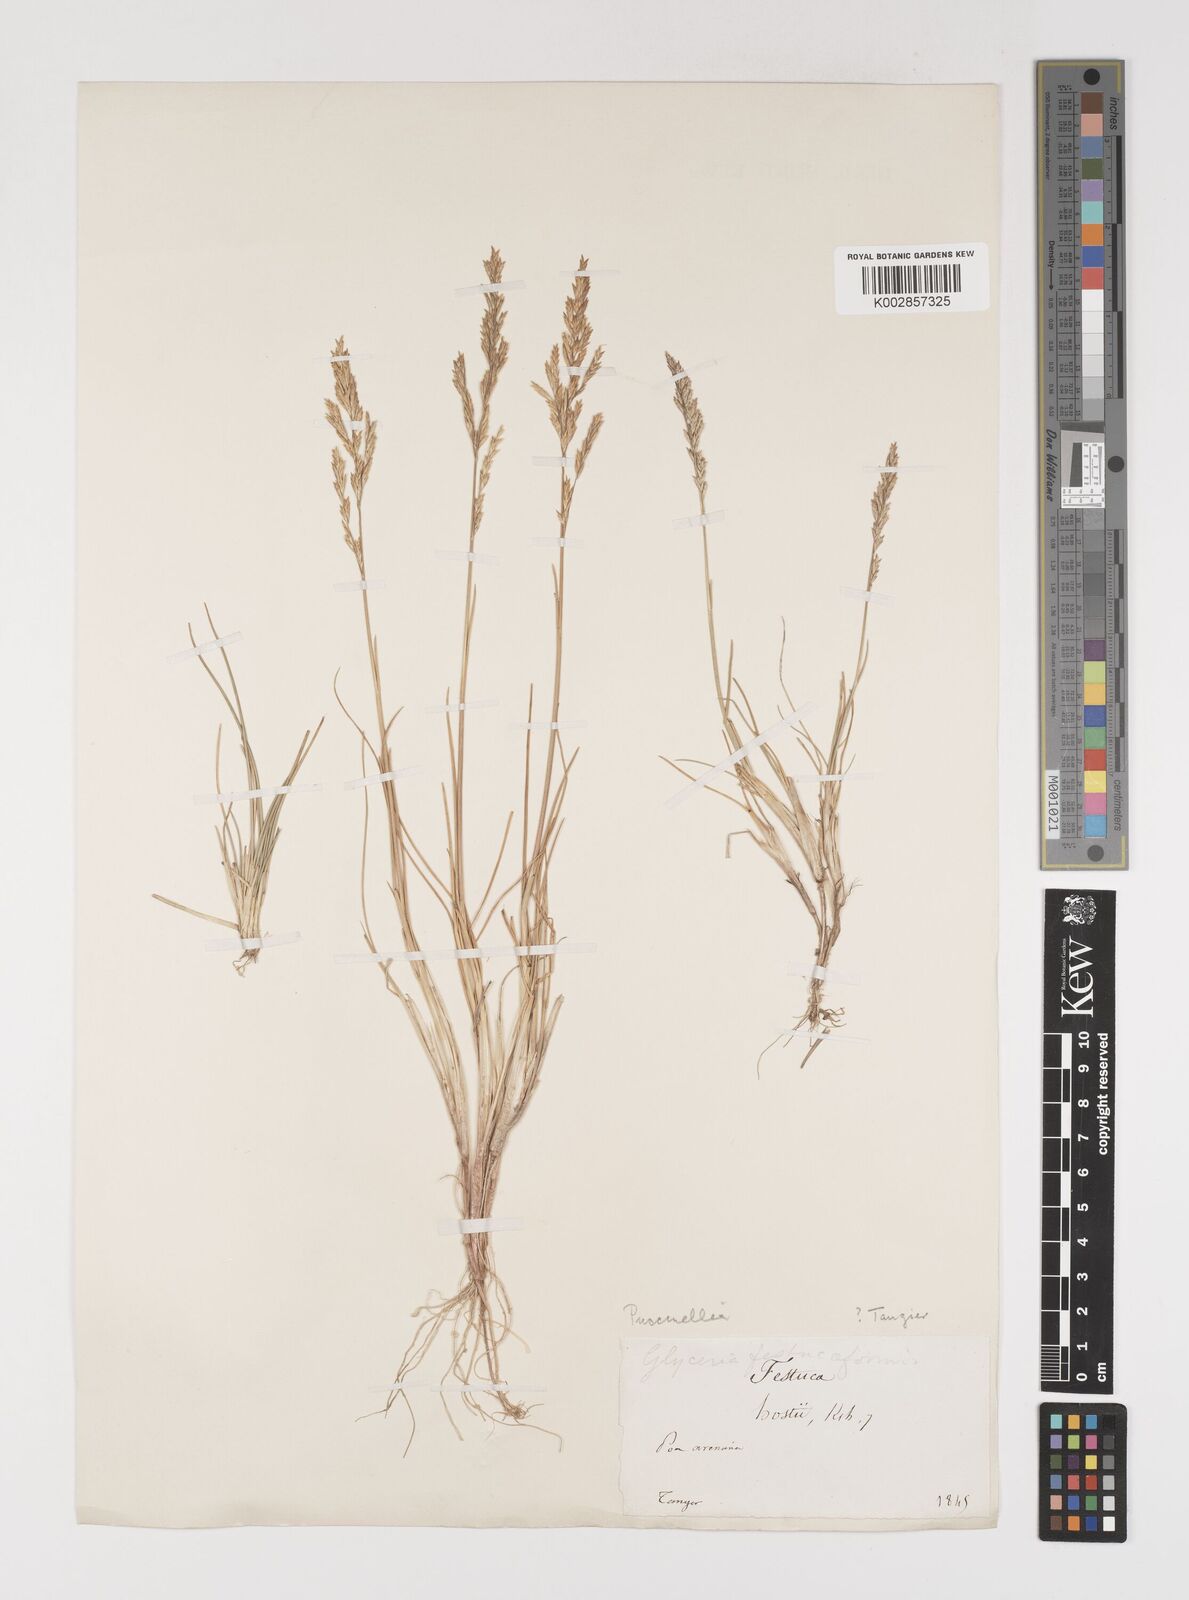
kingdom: Plantae
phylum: Tracheophyta
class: Liliopsida
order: Poales
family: Poaceae
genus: Puccinellia
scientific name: Puccinellia distans
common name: Weeping alkaligrass
